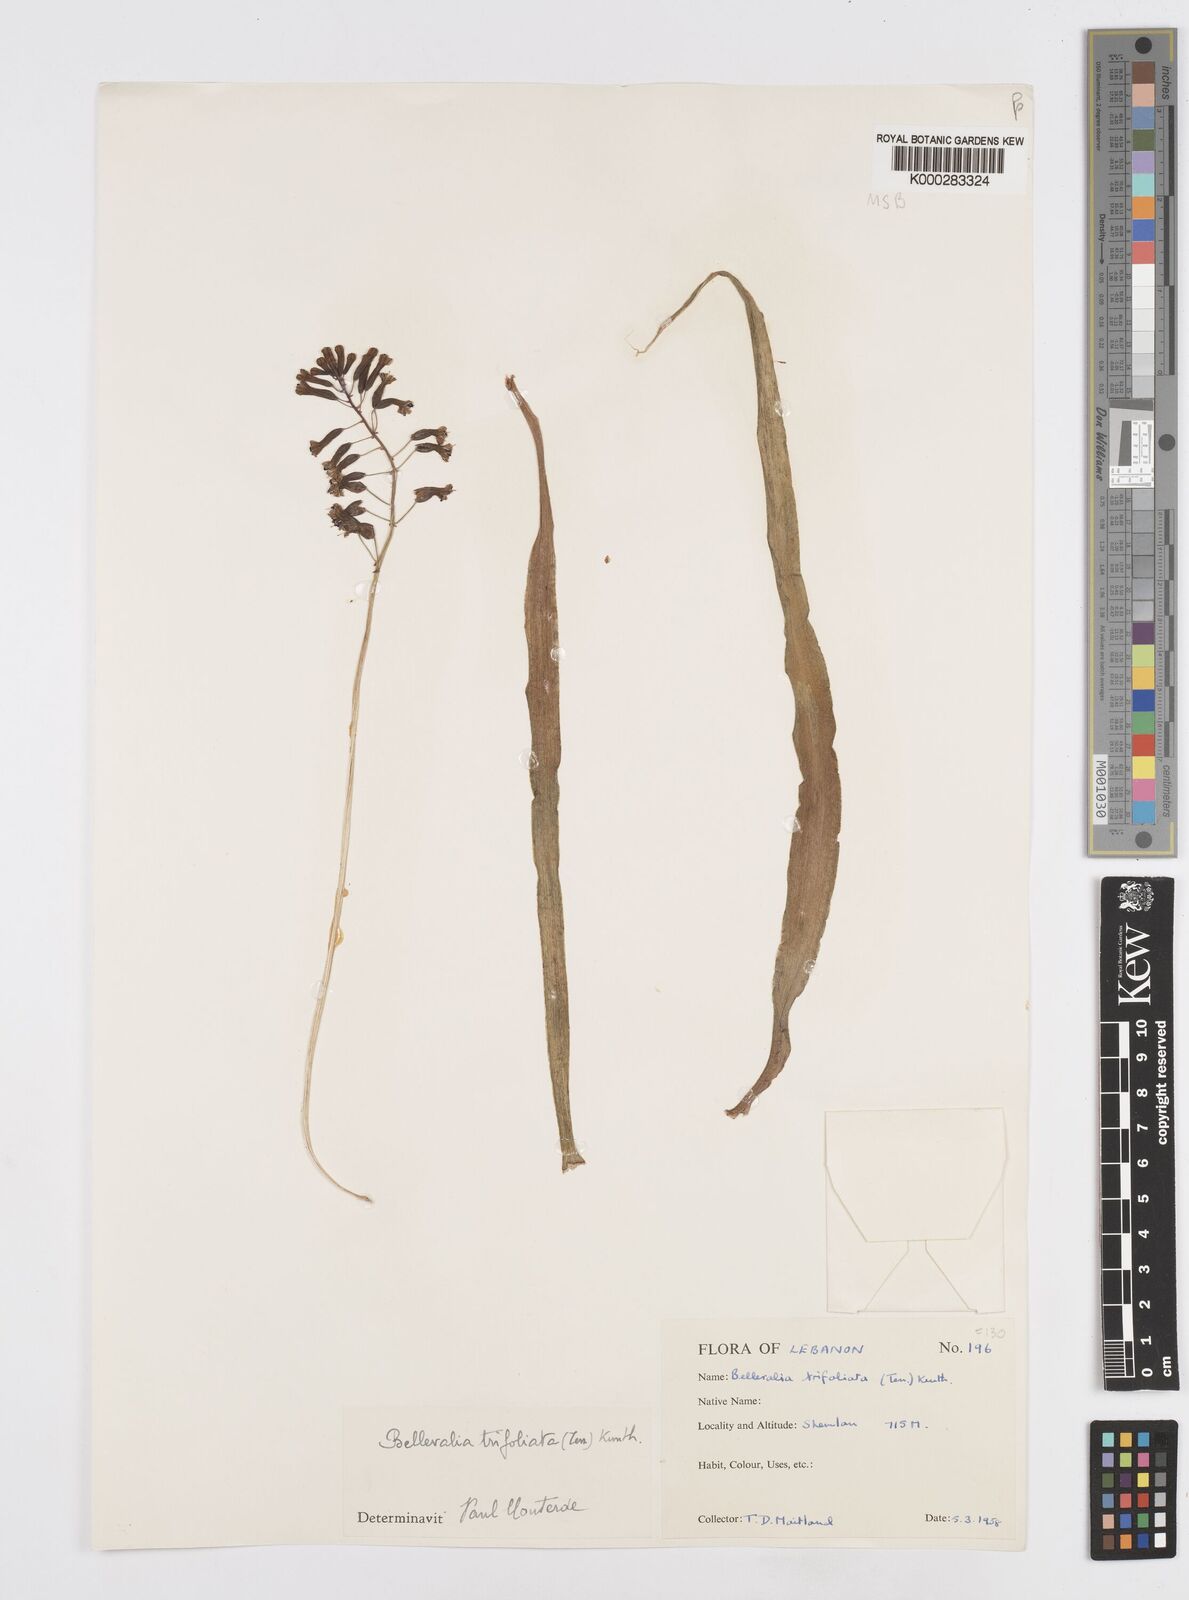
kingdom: Plantae
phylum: Tracheophyta
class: Liliopsida
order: Asparagales
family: Asparagaceae
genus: Bellevalia
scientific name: Bellevalia trifoliata
